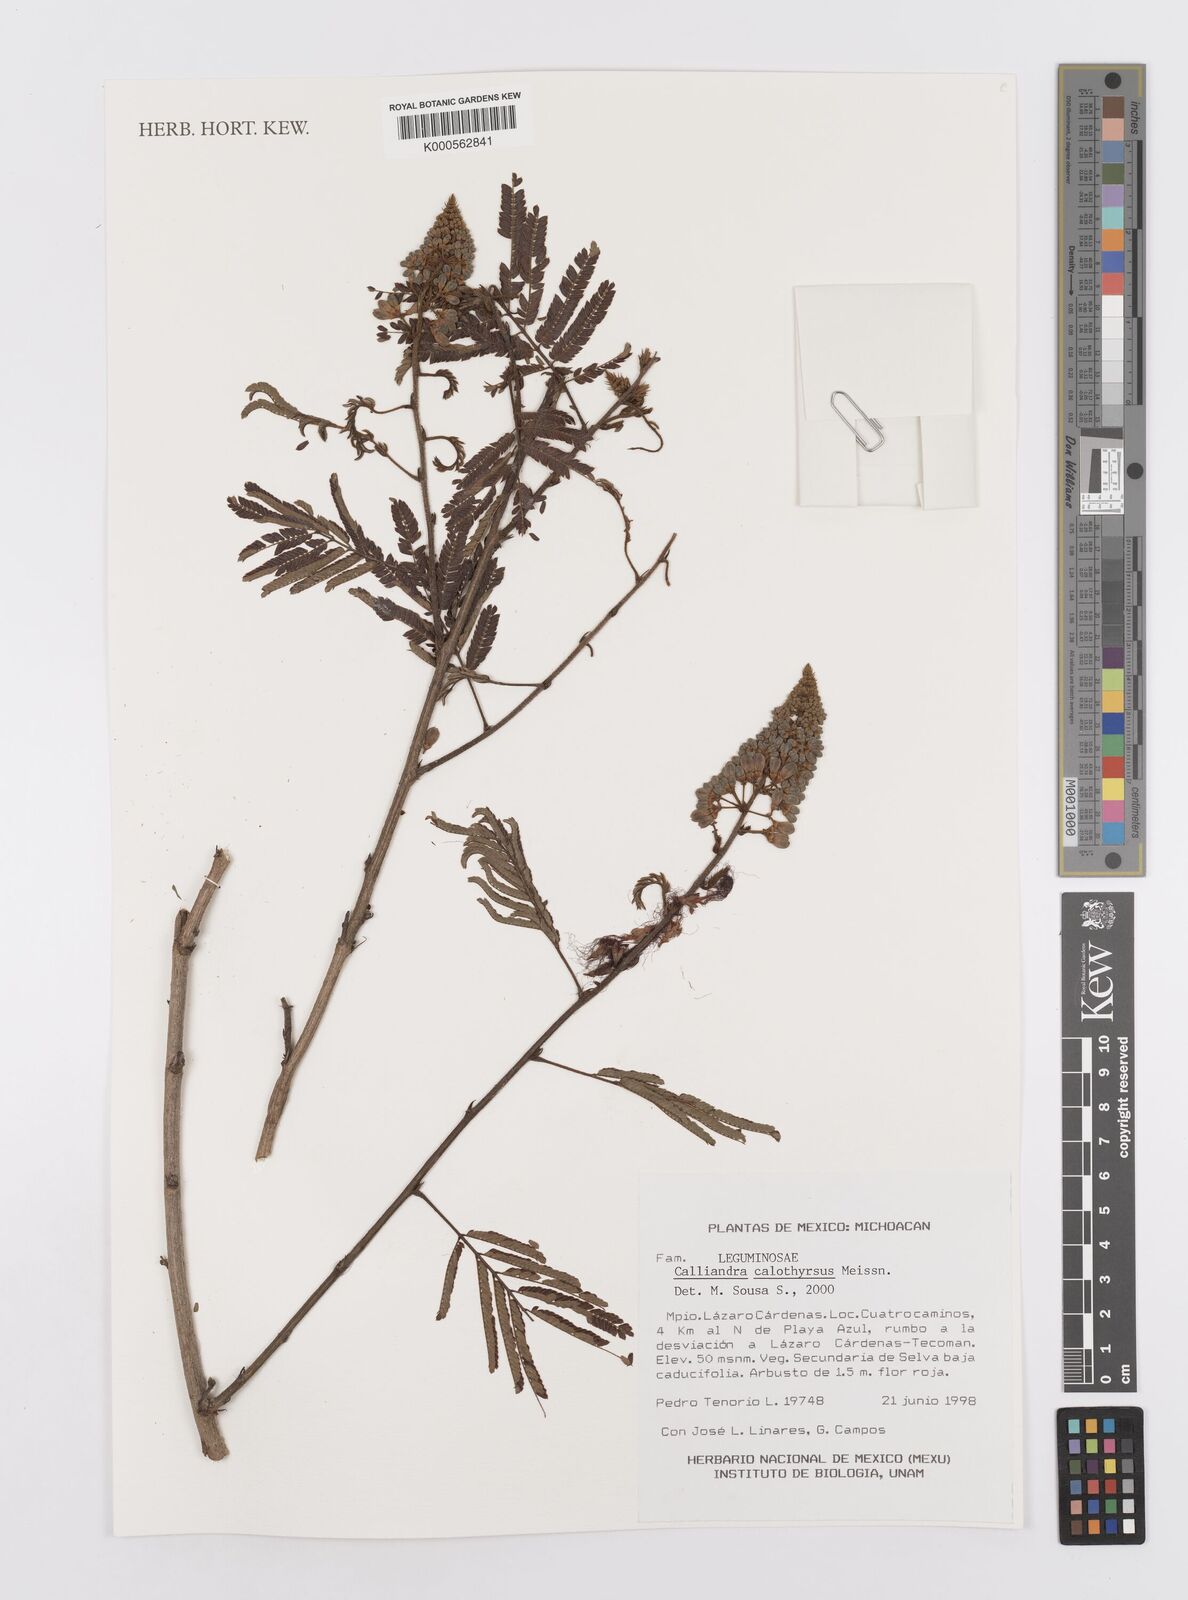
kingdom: Plantae
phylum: Tracheophyta
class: Magnoliopsida
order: Fabales
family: Fabaceae
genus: Calliandra
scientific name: Calliandra houstoniana
